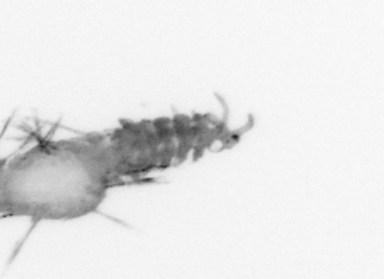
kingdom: Animalia
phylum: Annelida
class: Polychaeta
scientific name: Polychaeta
